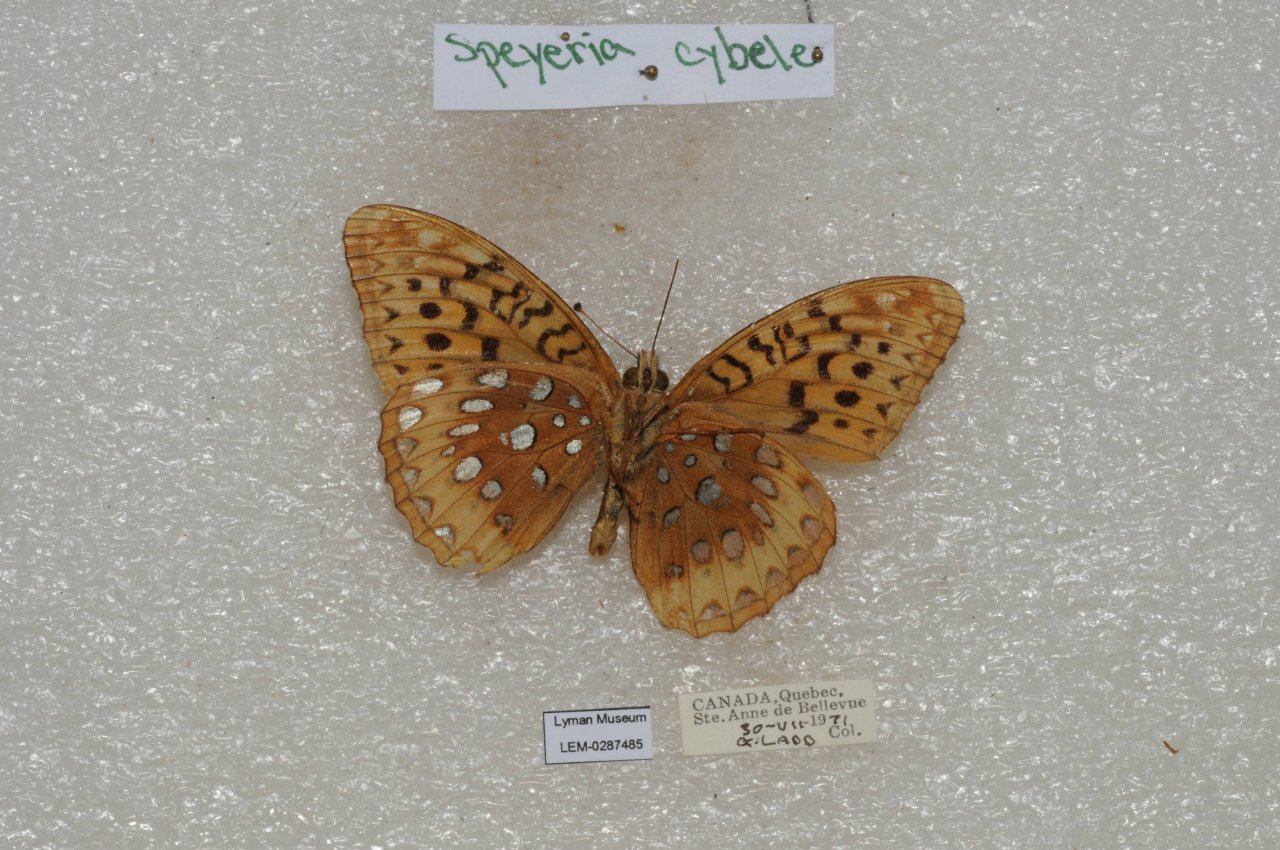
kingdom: Animalia
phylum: Arthropoda
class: Insecta
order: Lepidoptera
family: Nymphalidae
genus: Speyeria
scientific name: Speyeria cybele
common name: Great Spangled Fritillary
